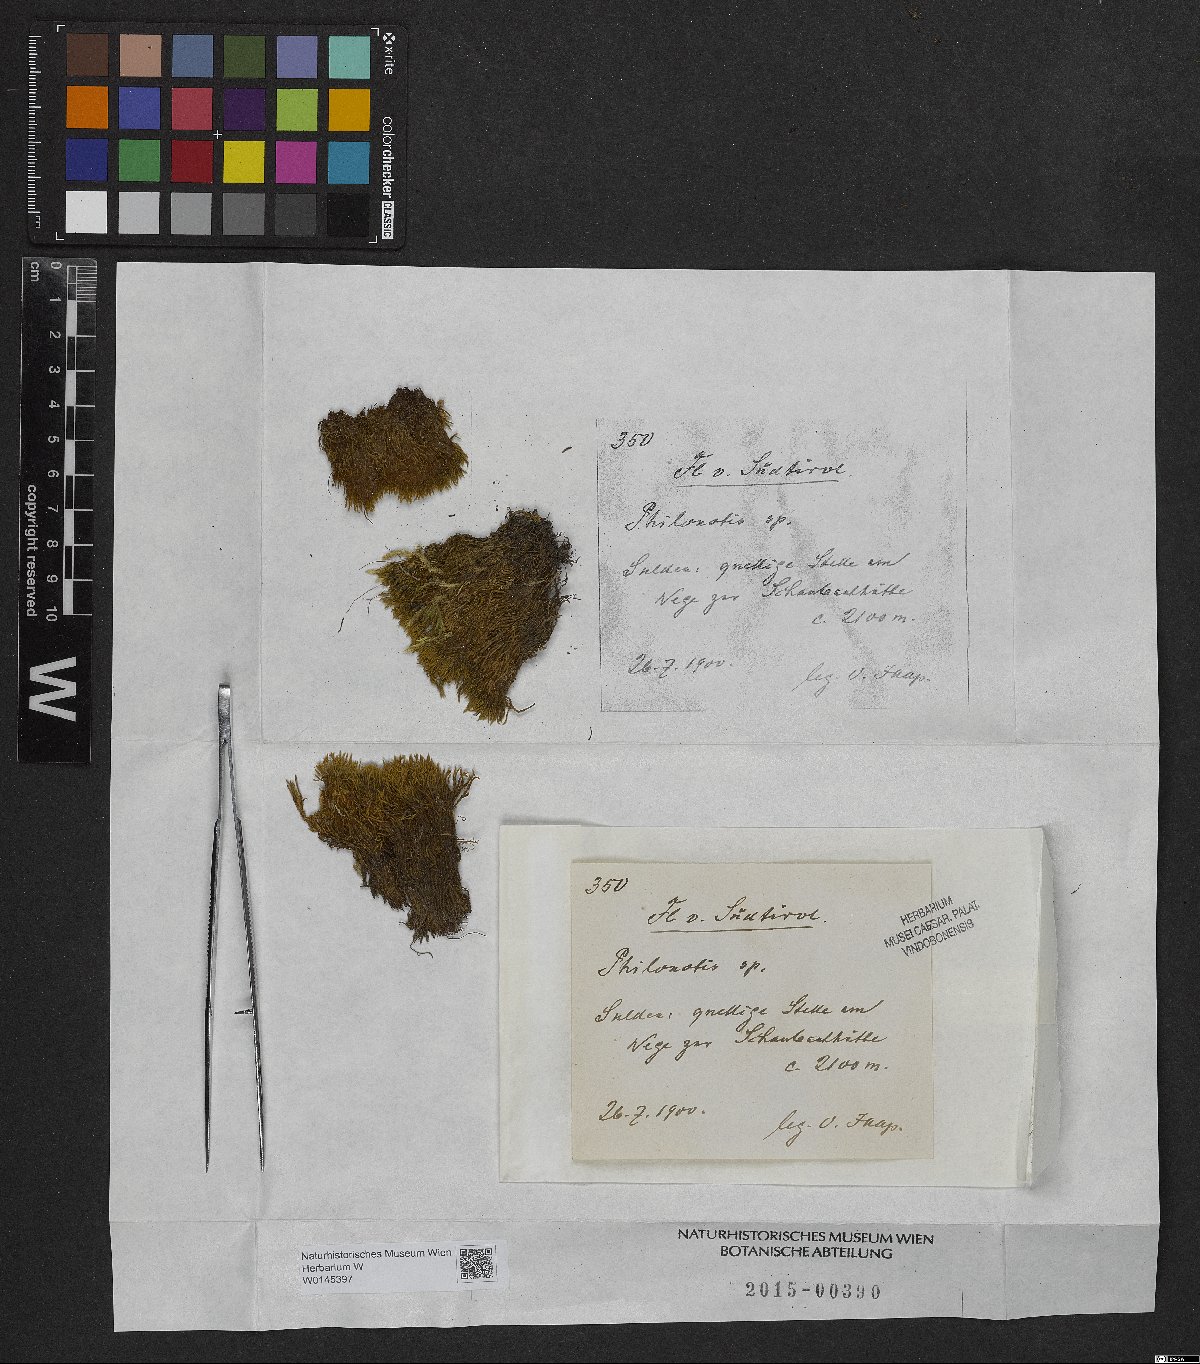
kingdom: Plantae
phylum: Bryophyta
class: Bryopsida
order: Bartramiales
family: Bartramiaceae
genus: Philonotis
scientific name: Philonotis
